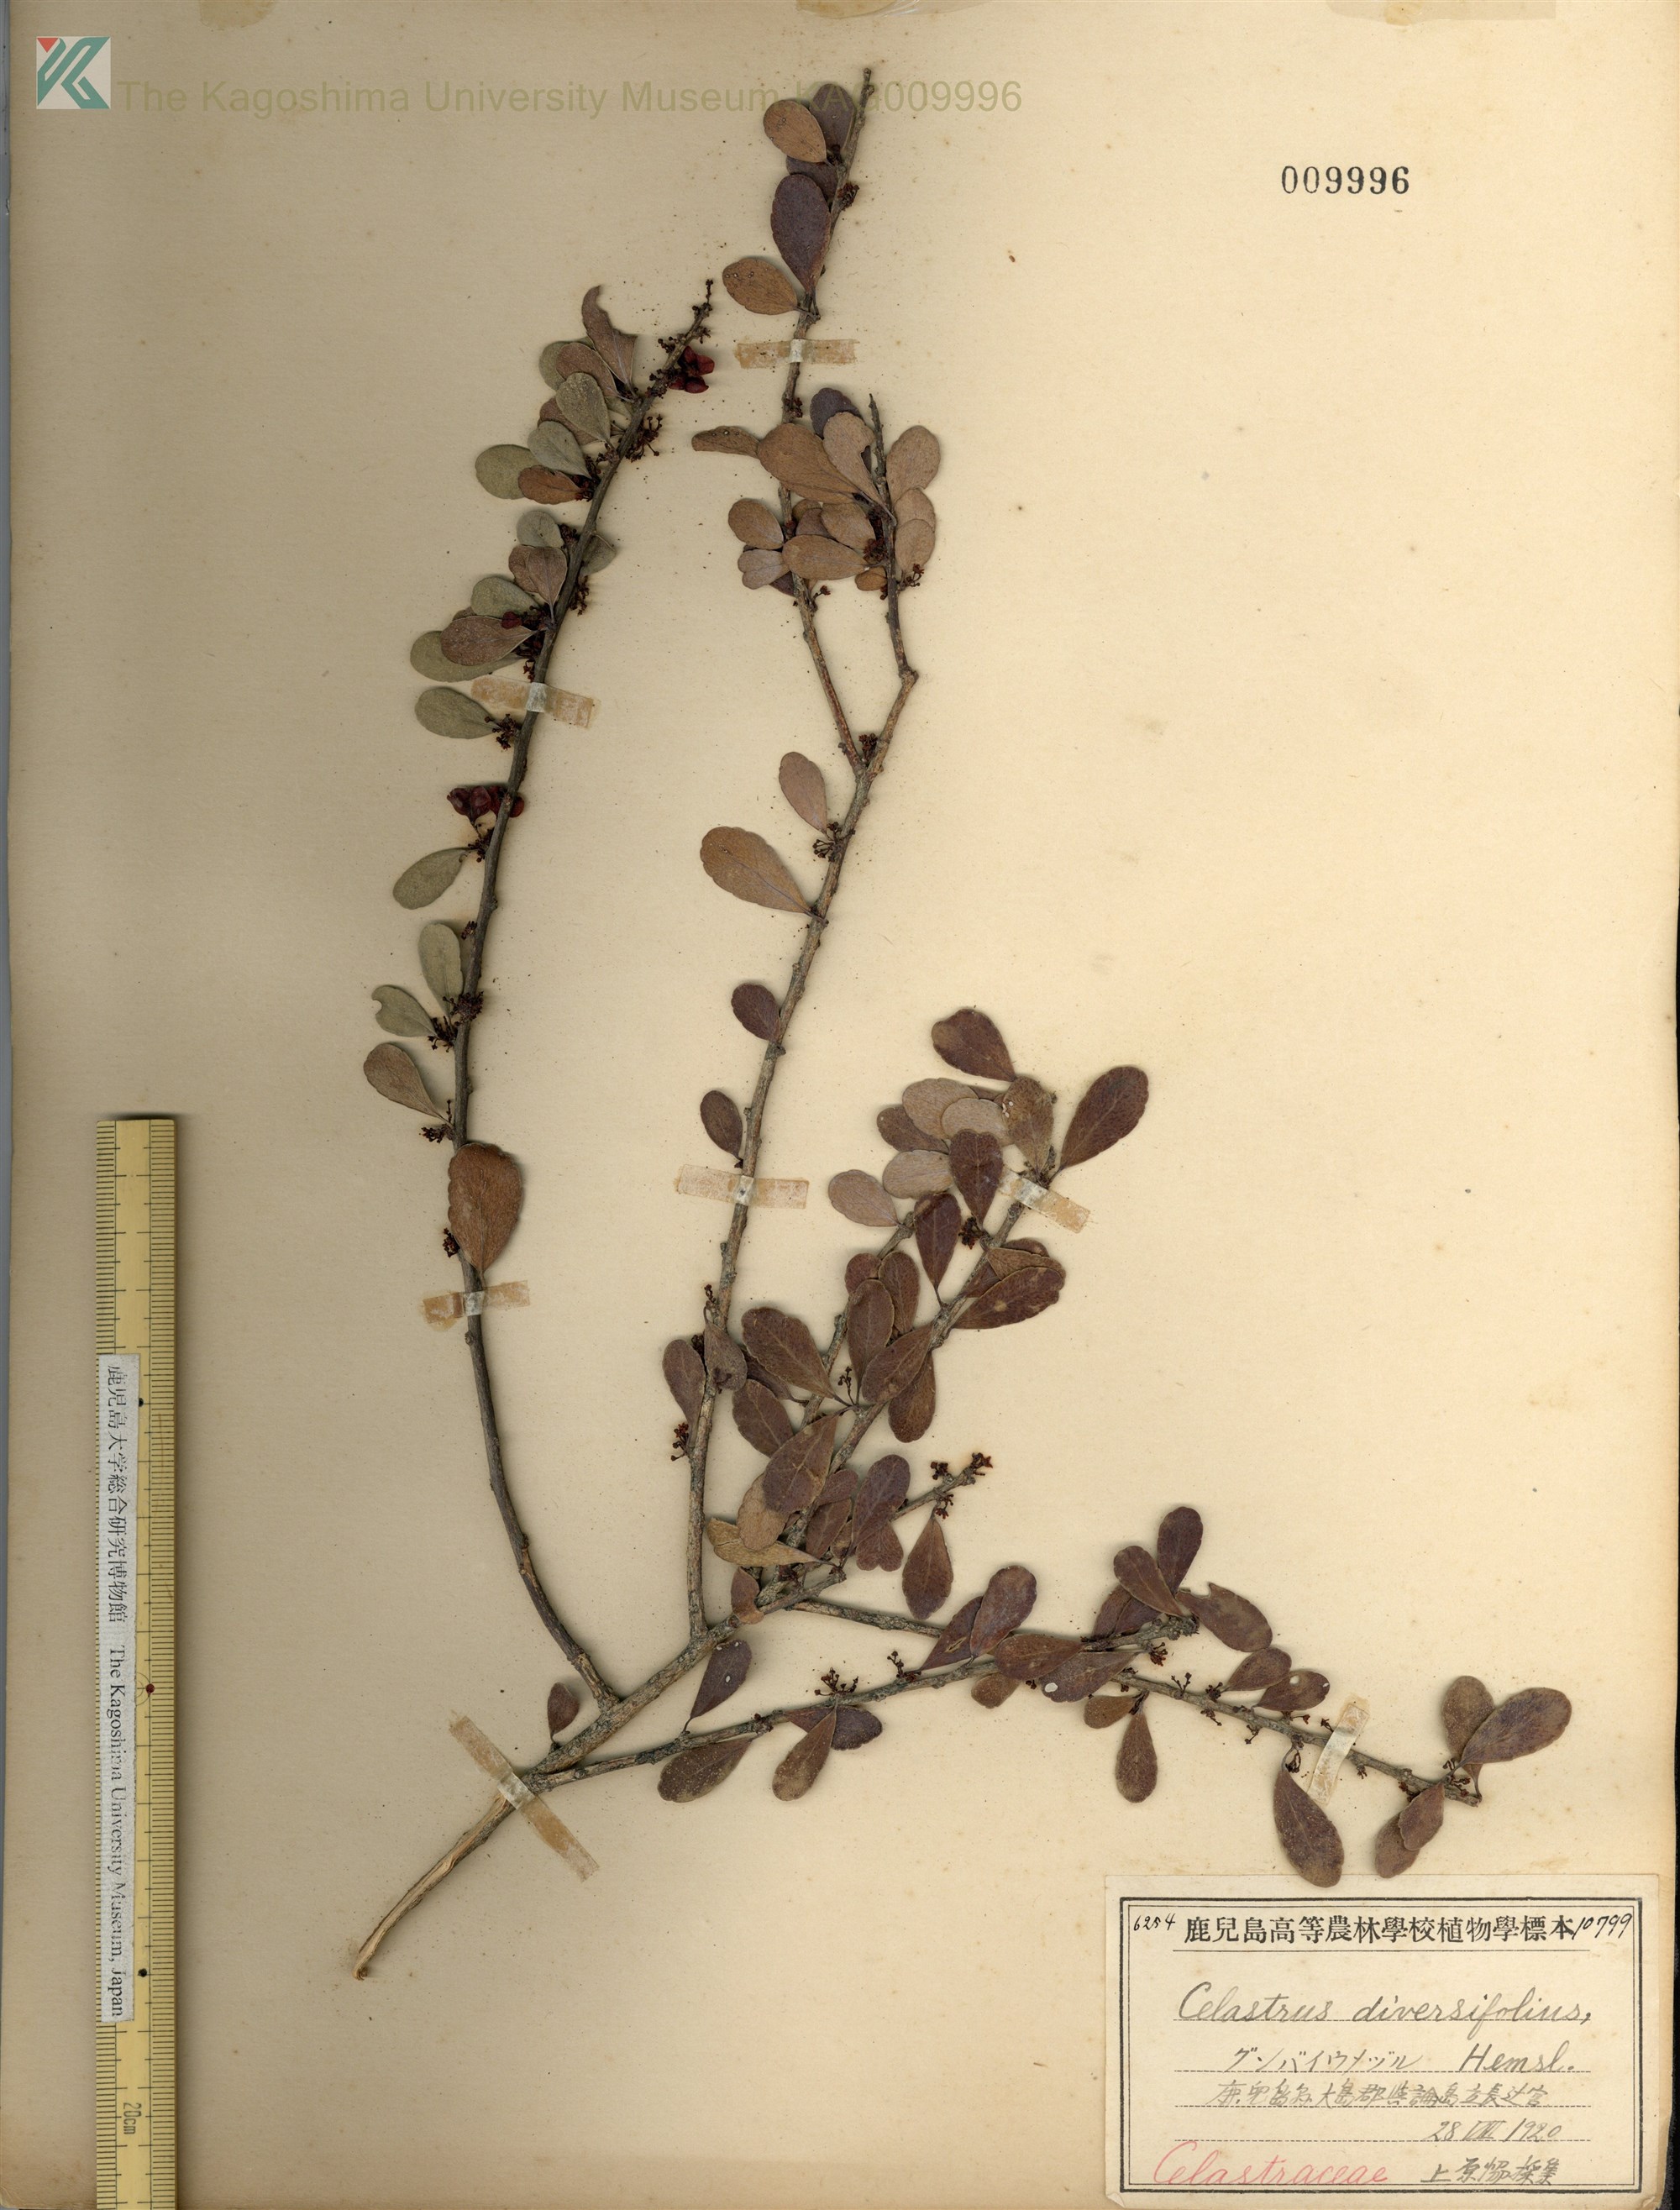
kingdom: Plantae
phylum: Tracheophyta
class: Magnoliopsida
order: Celastrales
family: Celastraceae
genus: Gymnosporia
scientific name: Gymnosporia diversifolia
